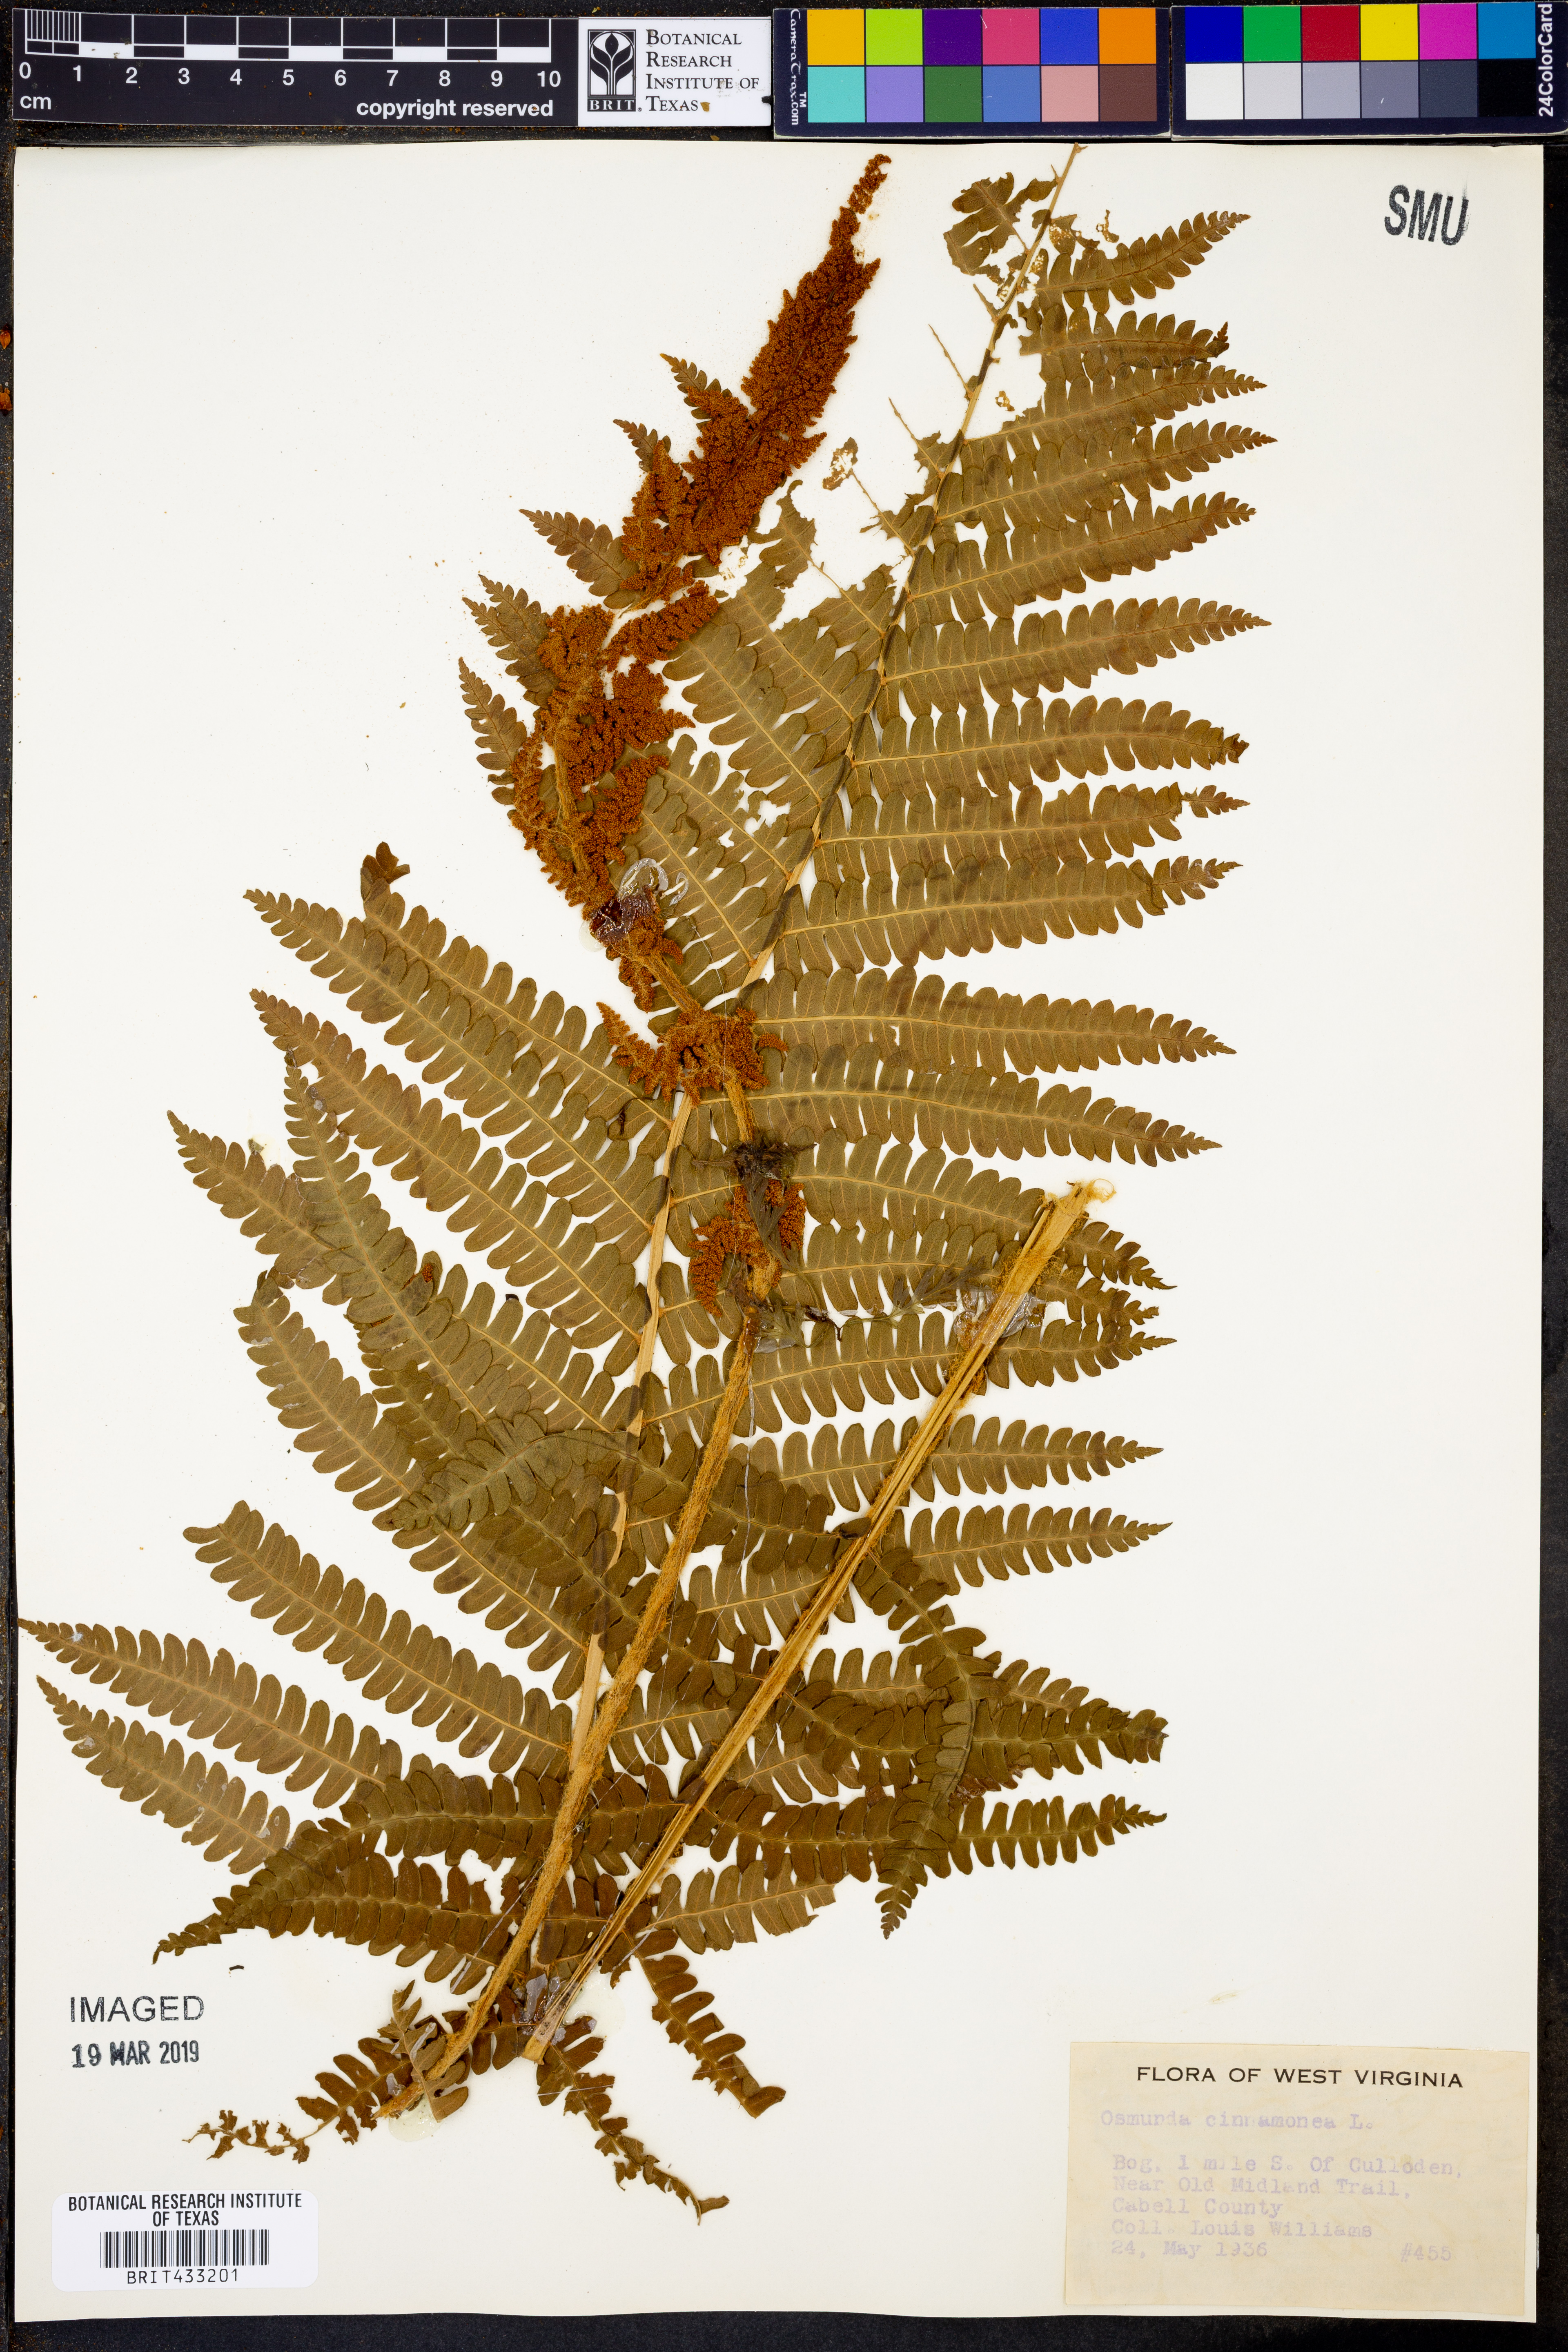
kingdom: Plantae
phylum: Tracheophyta
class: Polypodiopsida
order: Osmundales
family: Osmundaceae
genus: Osmundastrum
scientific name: Osmundastrum cinnamomeum
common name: Cinnamon fern
